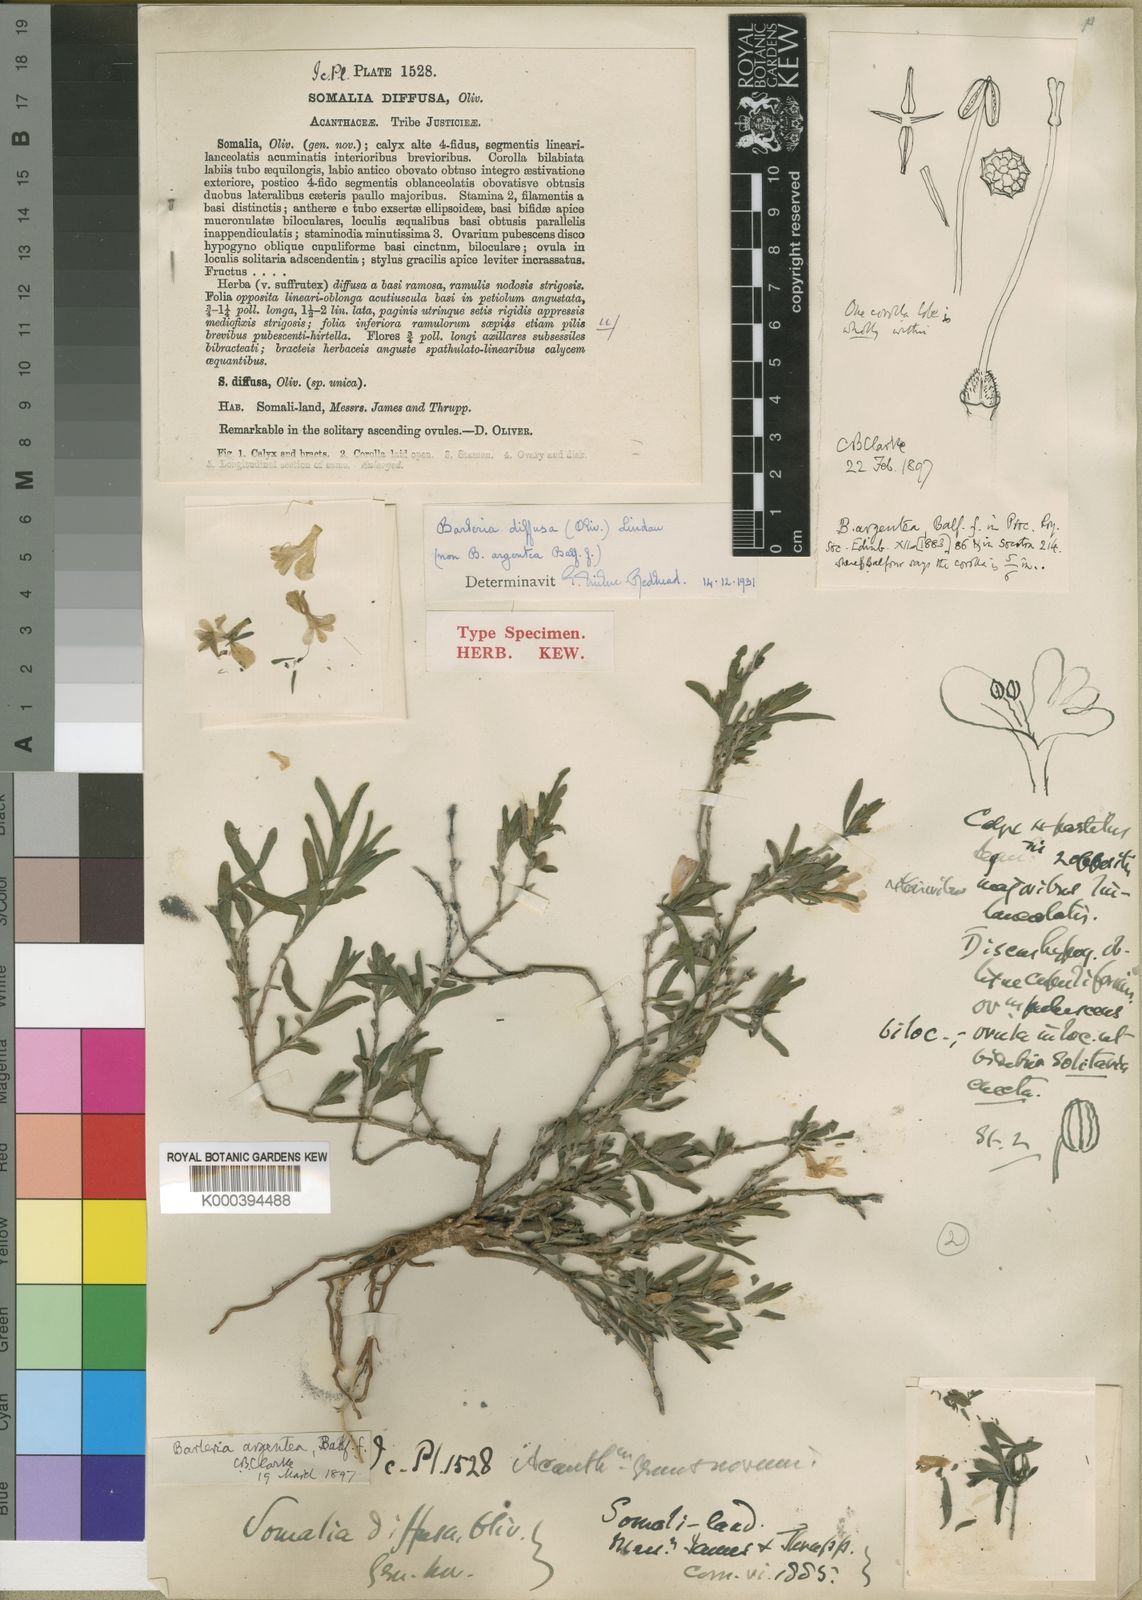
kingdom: Plantae
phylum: Tracheophyta
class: Magnoliopsida
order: Lamiales
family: Acanthaceae
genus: Barleria
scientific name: Barleria argentea
